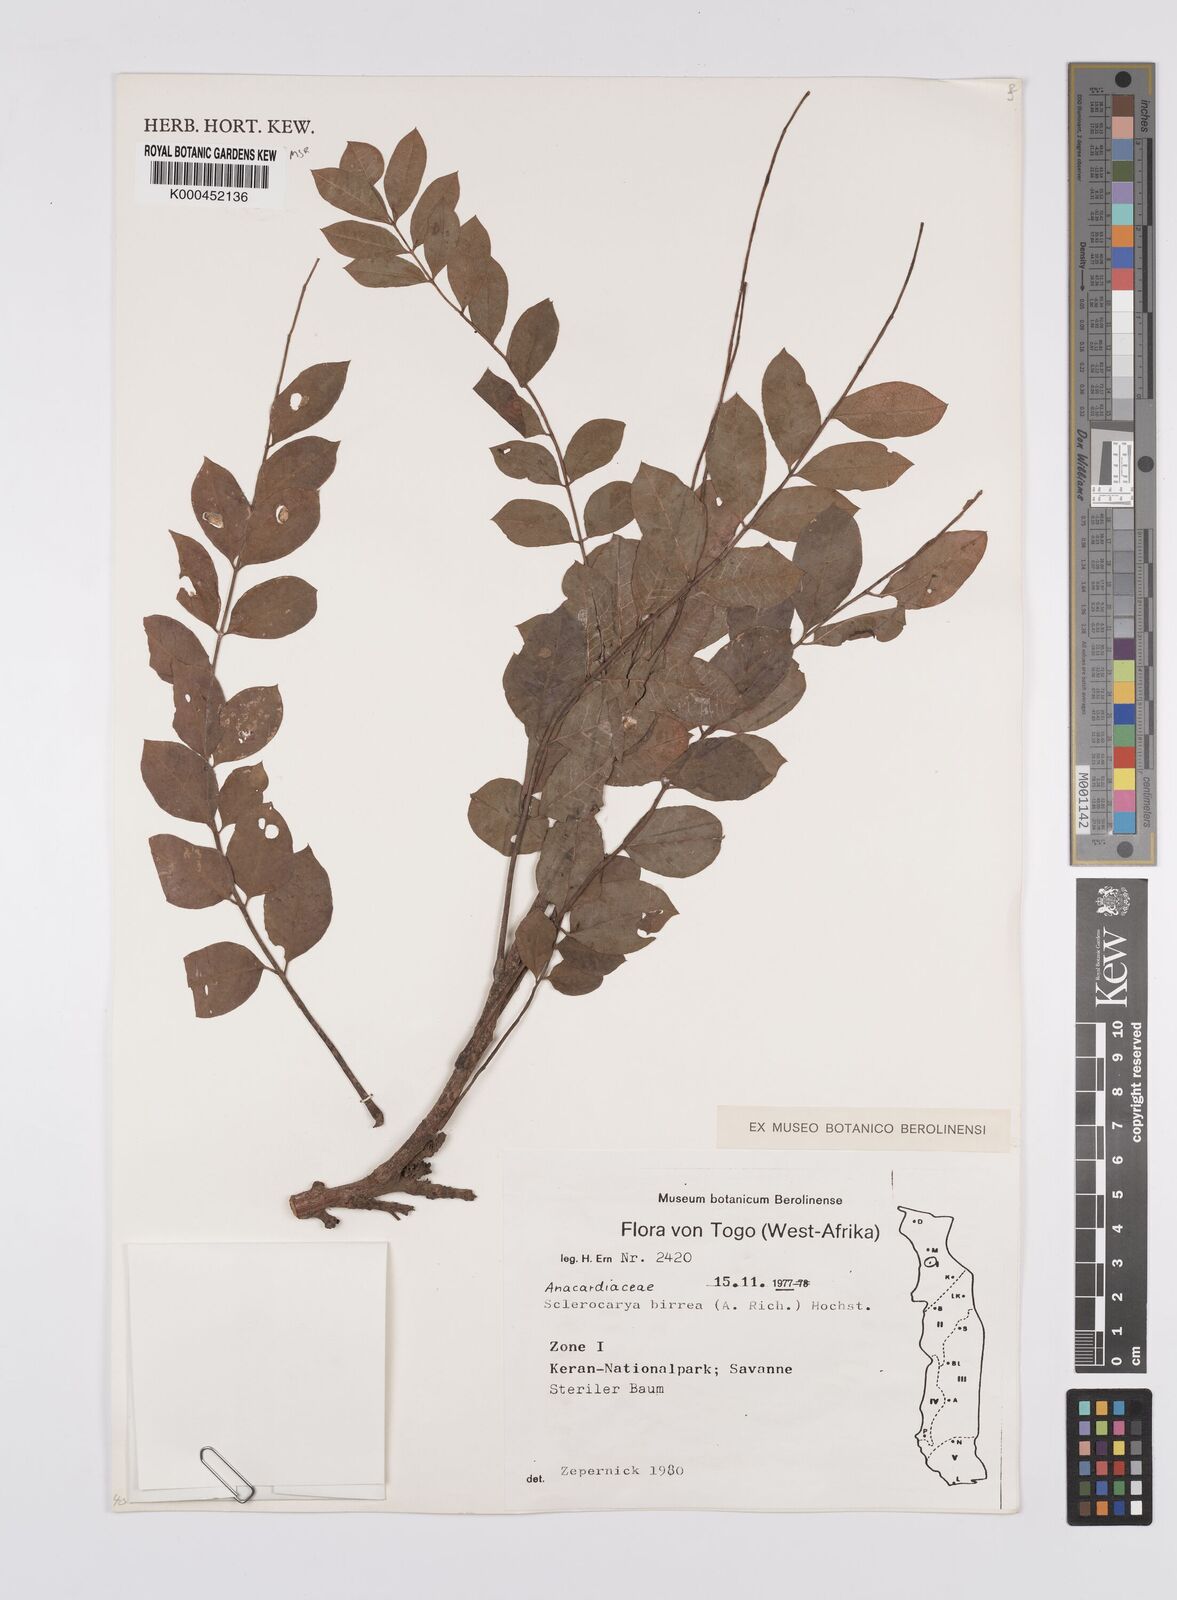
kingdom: Plantae
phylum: Tracheophyta
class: Magnoliopsida
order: Sapindales
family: Anacardiaceae
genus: Sclerocarya
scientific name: Sclerocarya birrea
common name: Marula
